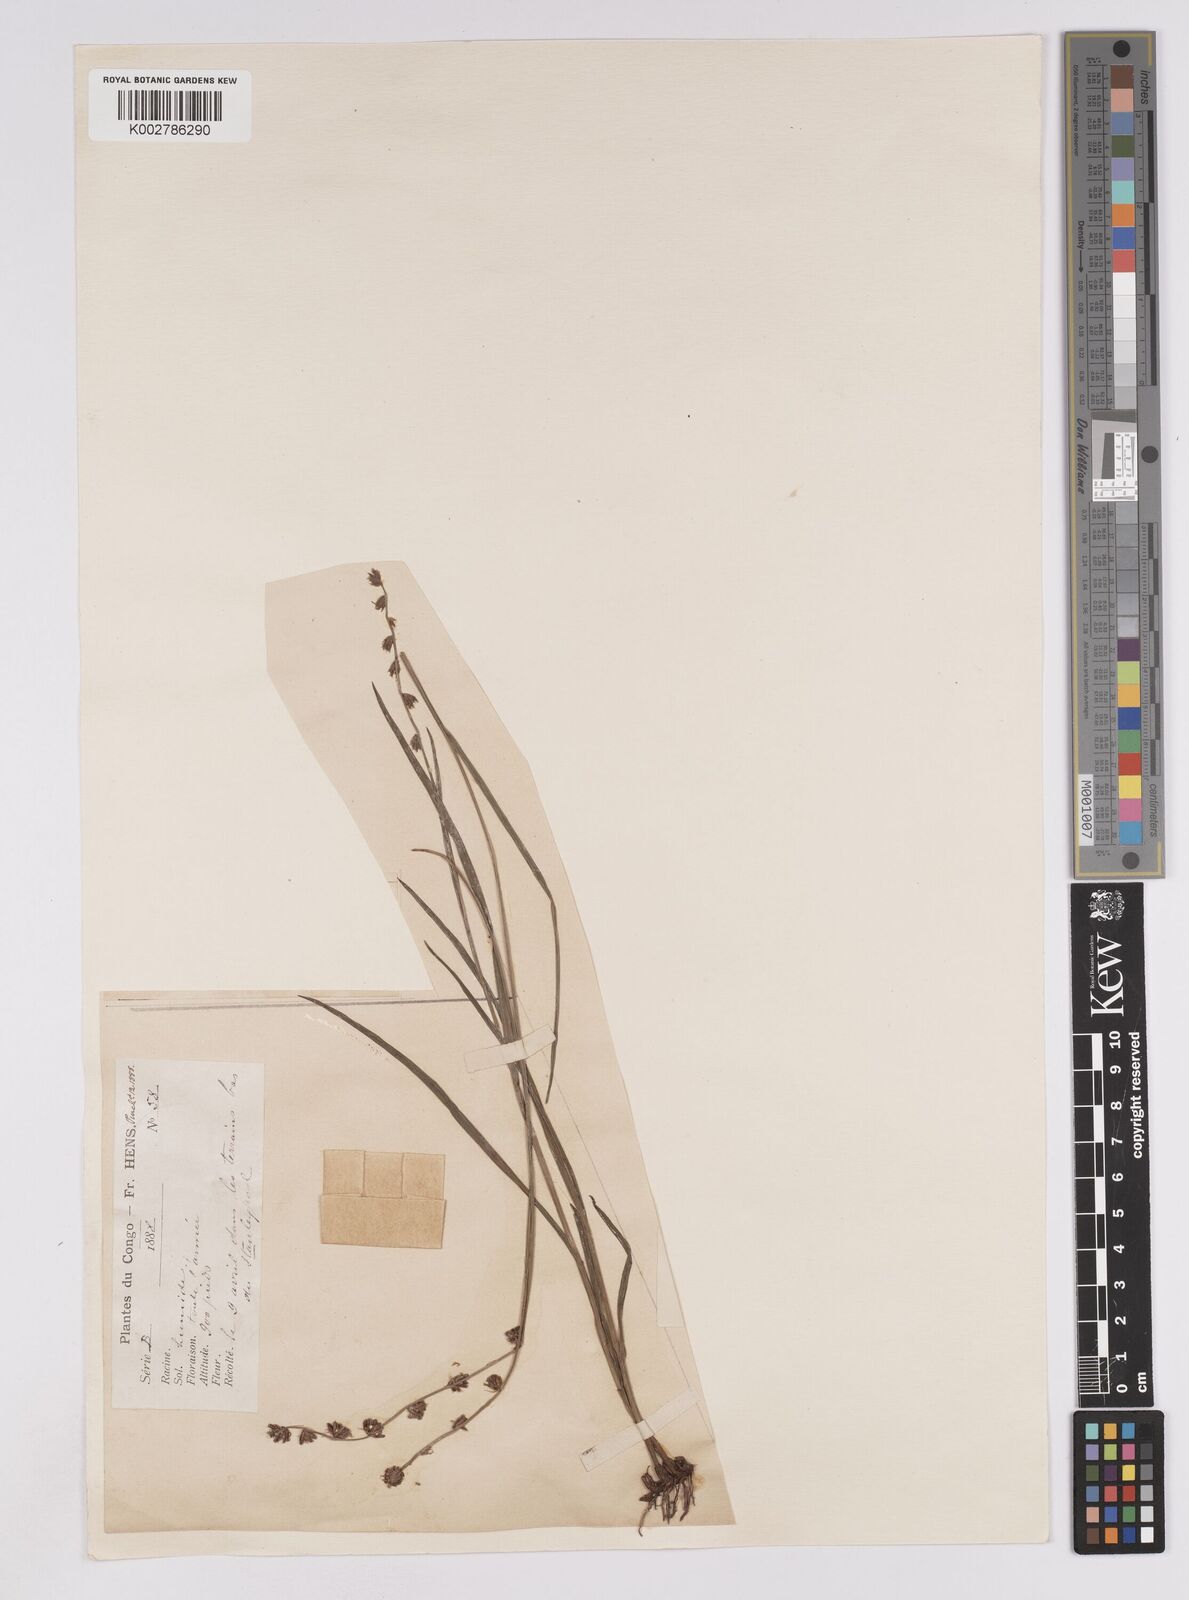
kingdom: Plantae
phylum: Tracheophyta
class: Liliopsida
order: Poales
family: Cyperaceae
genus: Scleria
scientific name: Scleria brownii
